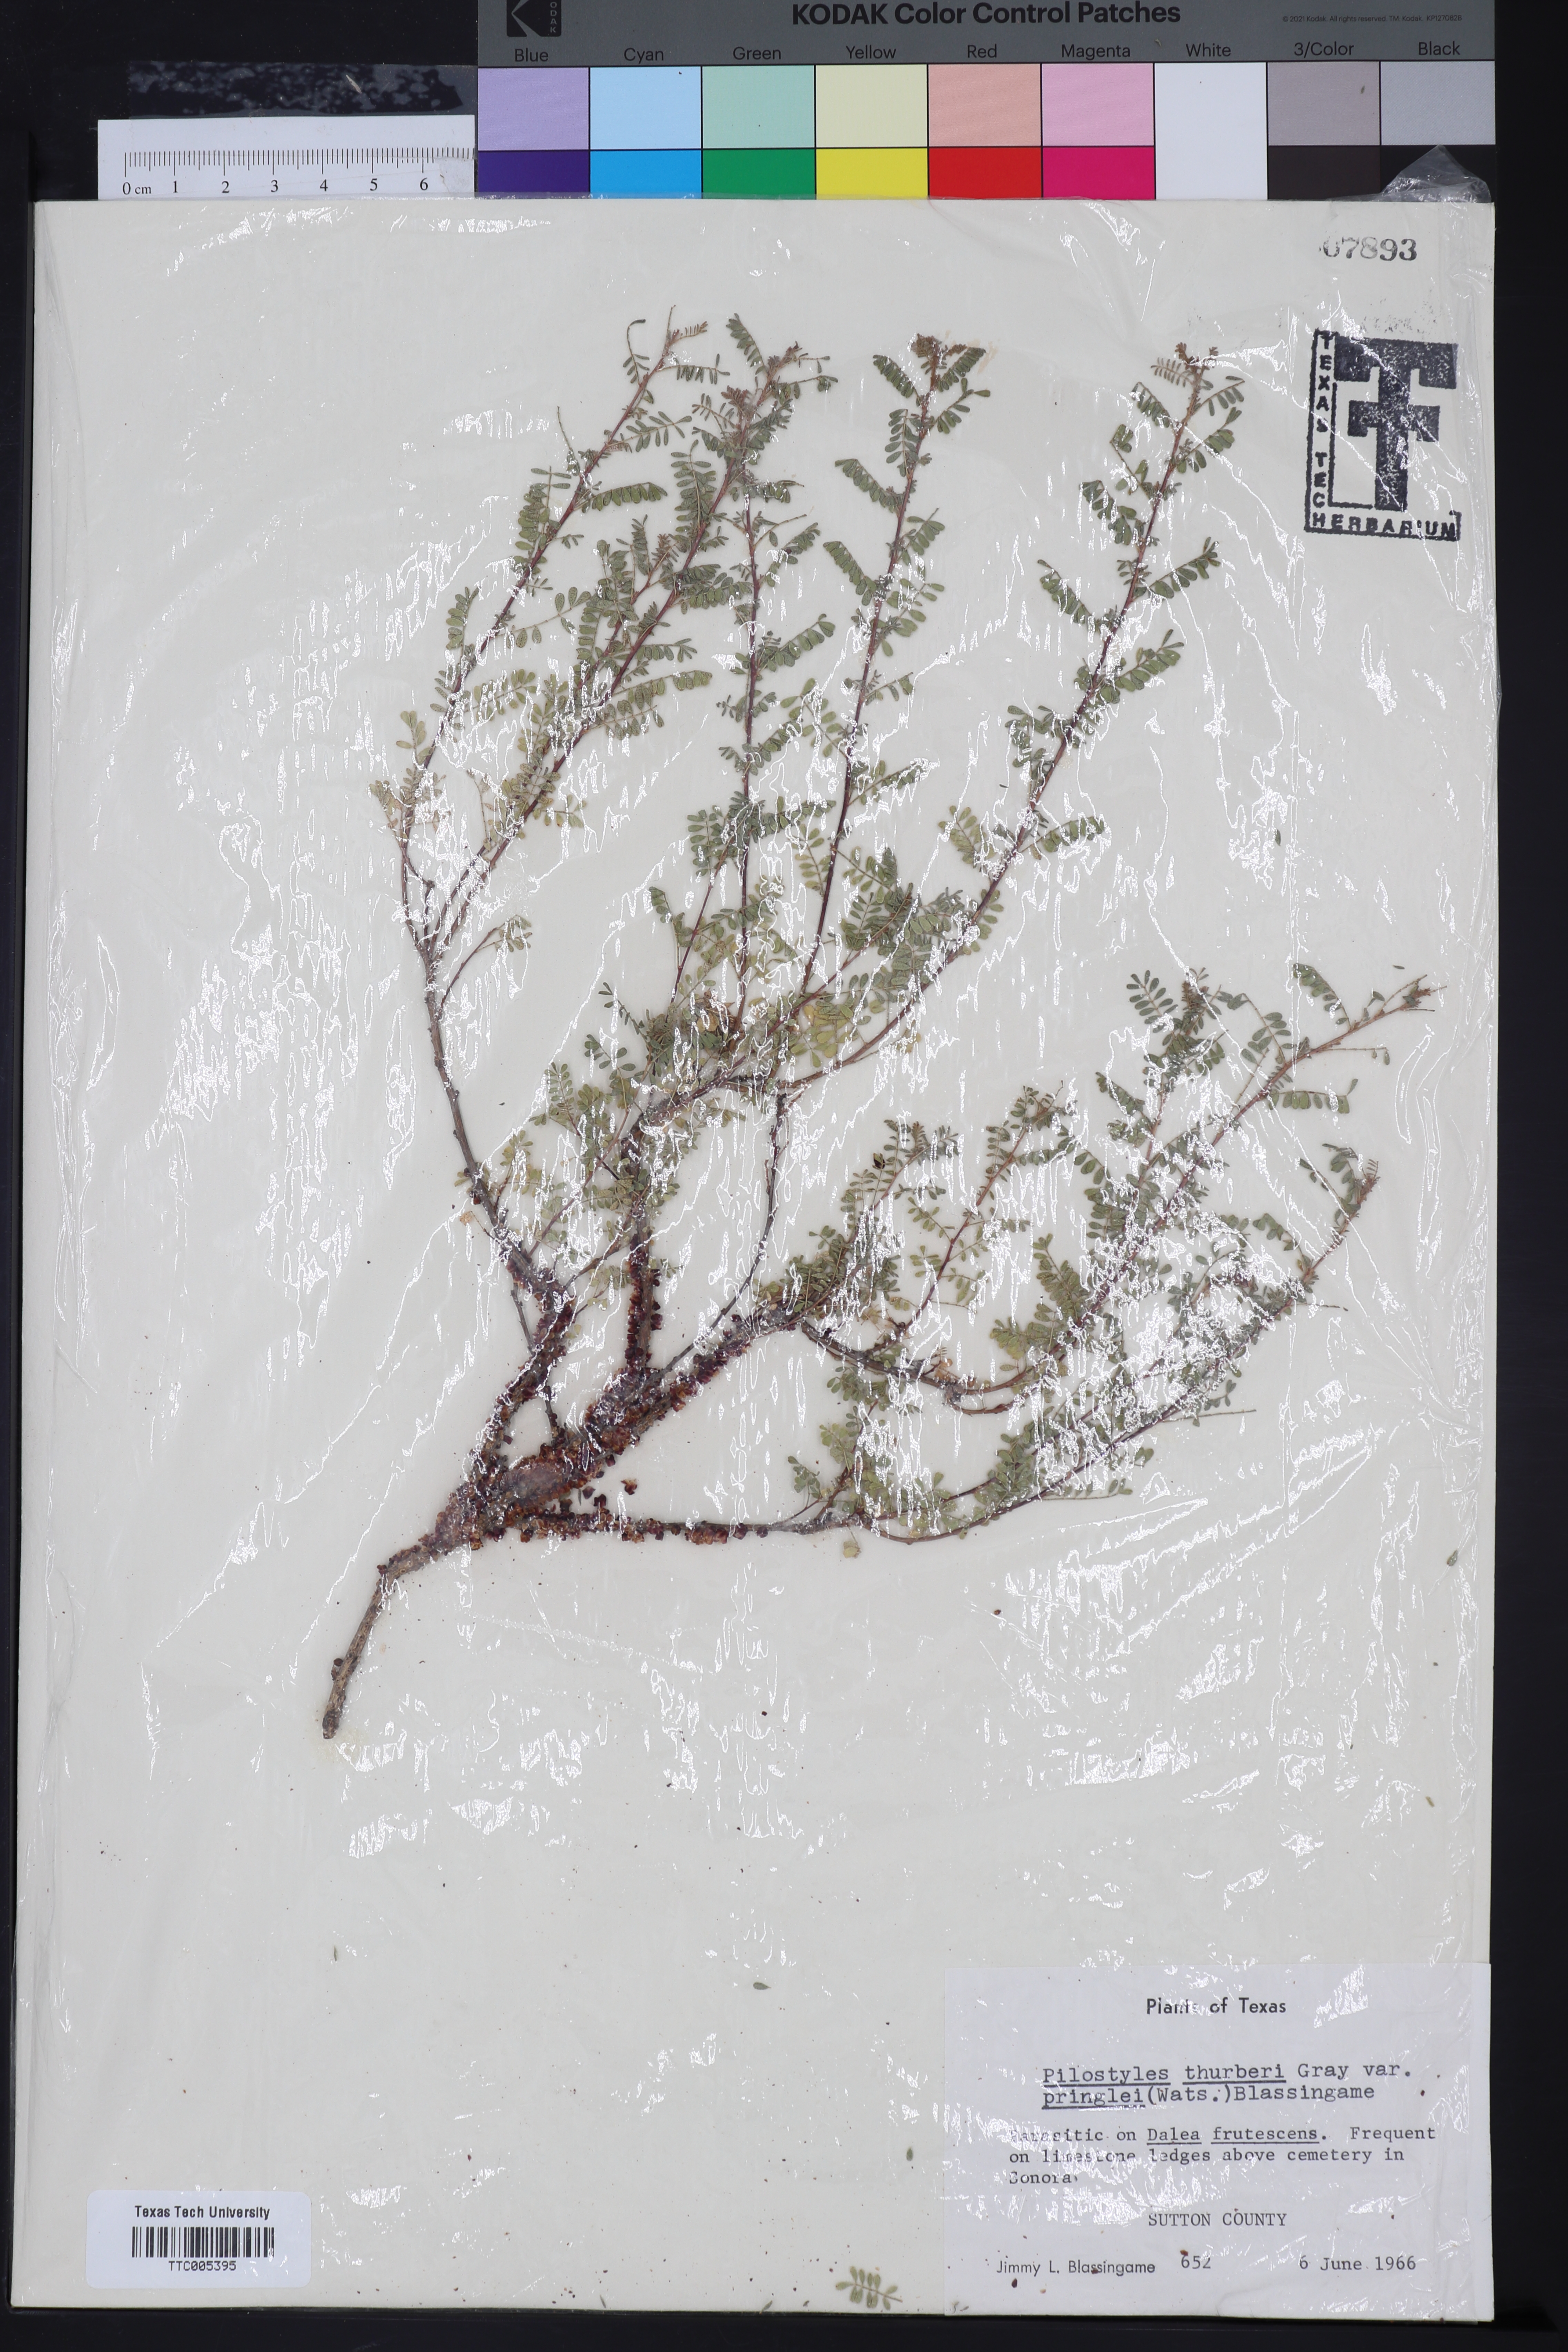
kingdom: Plantae
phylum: Tracheophyta
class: Magnoliopsida
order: Cucurbitales
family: Apodanthaceae
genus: Pilostyles
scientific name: Pilostyles thurberi
